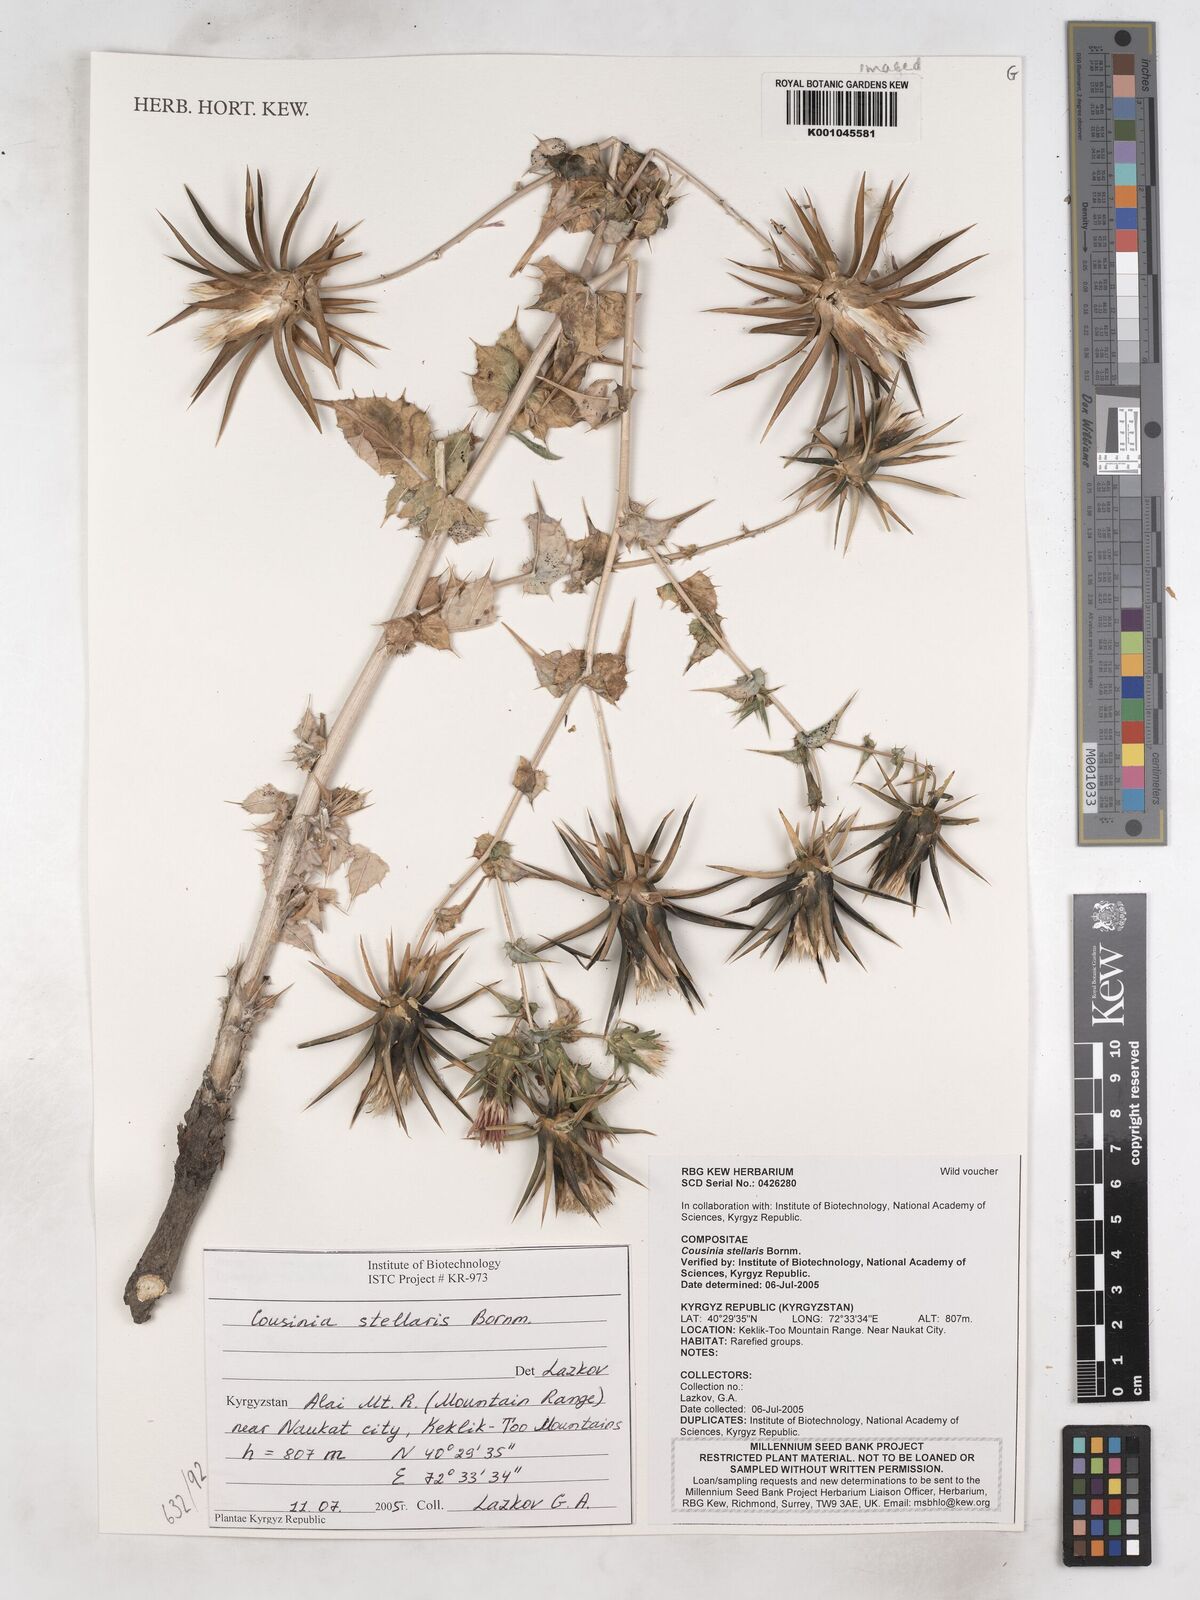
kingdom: Plantae
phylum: Tracheophyta
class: Magnoliopsida
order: Asterales
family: Asteraceae
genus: Cousinia
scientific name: Cousinia stellaris
